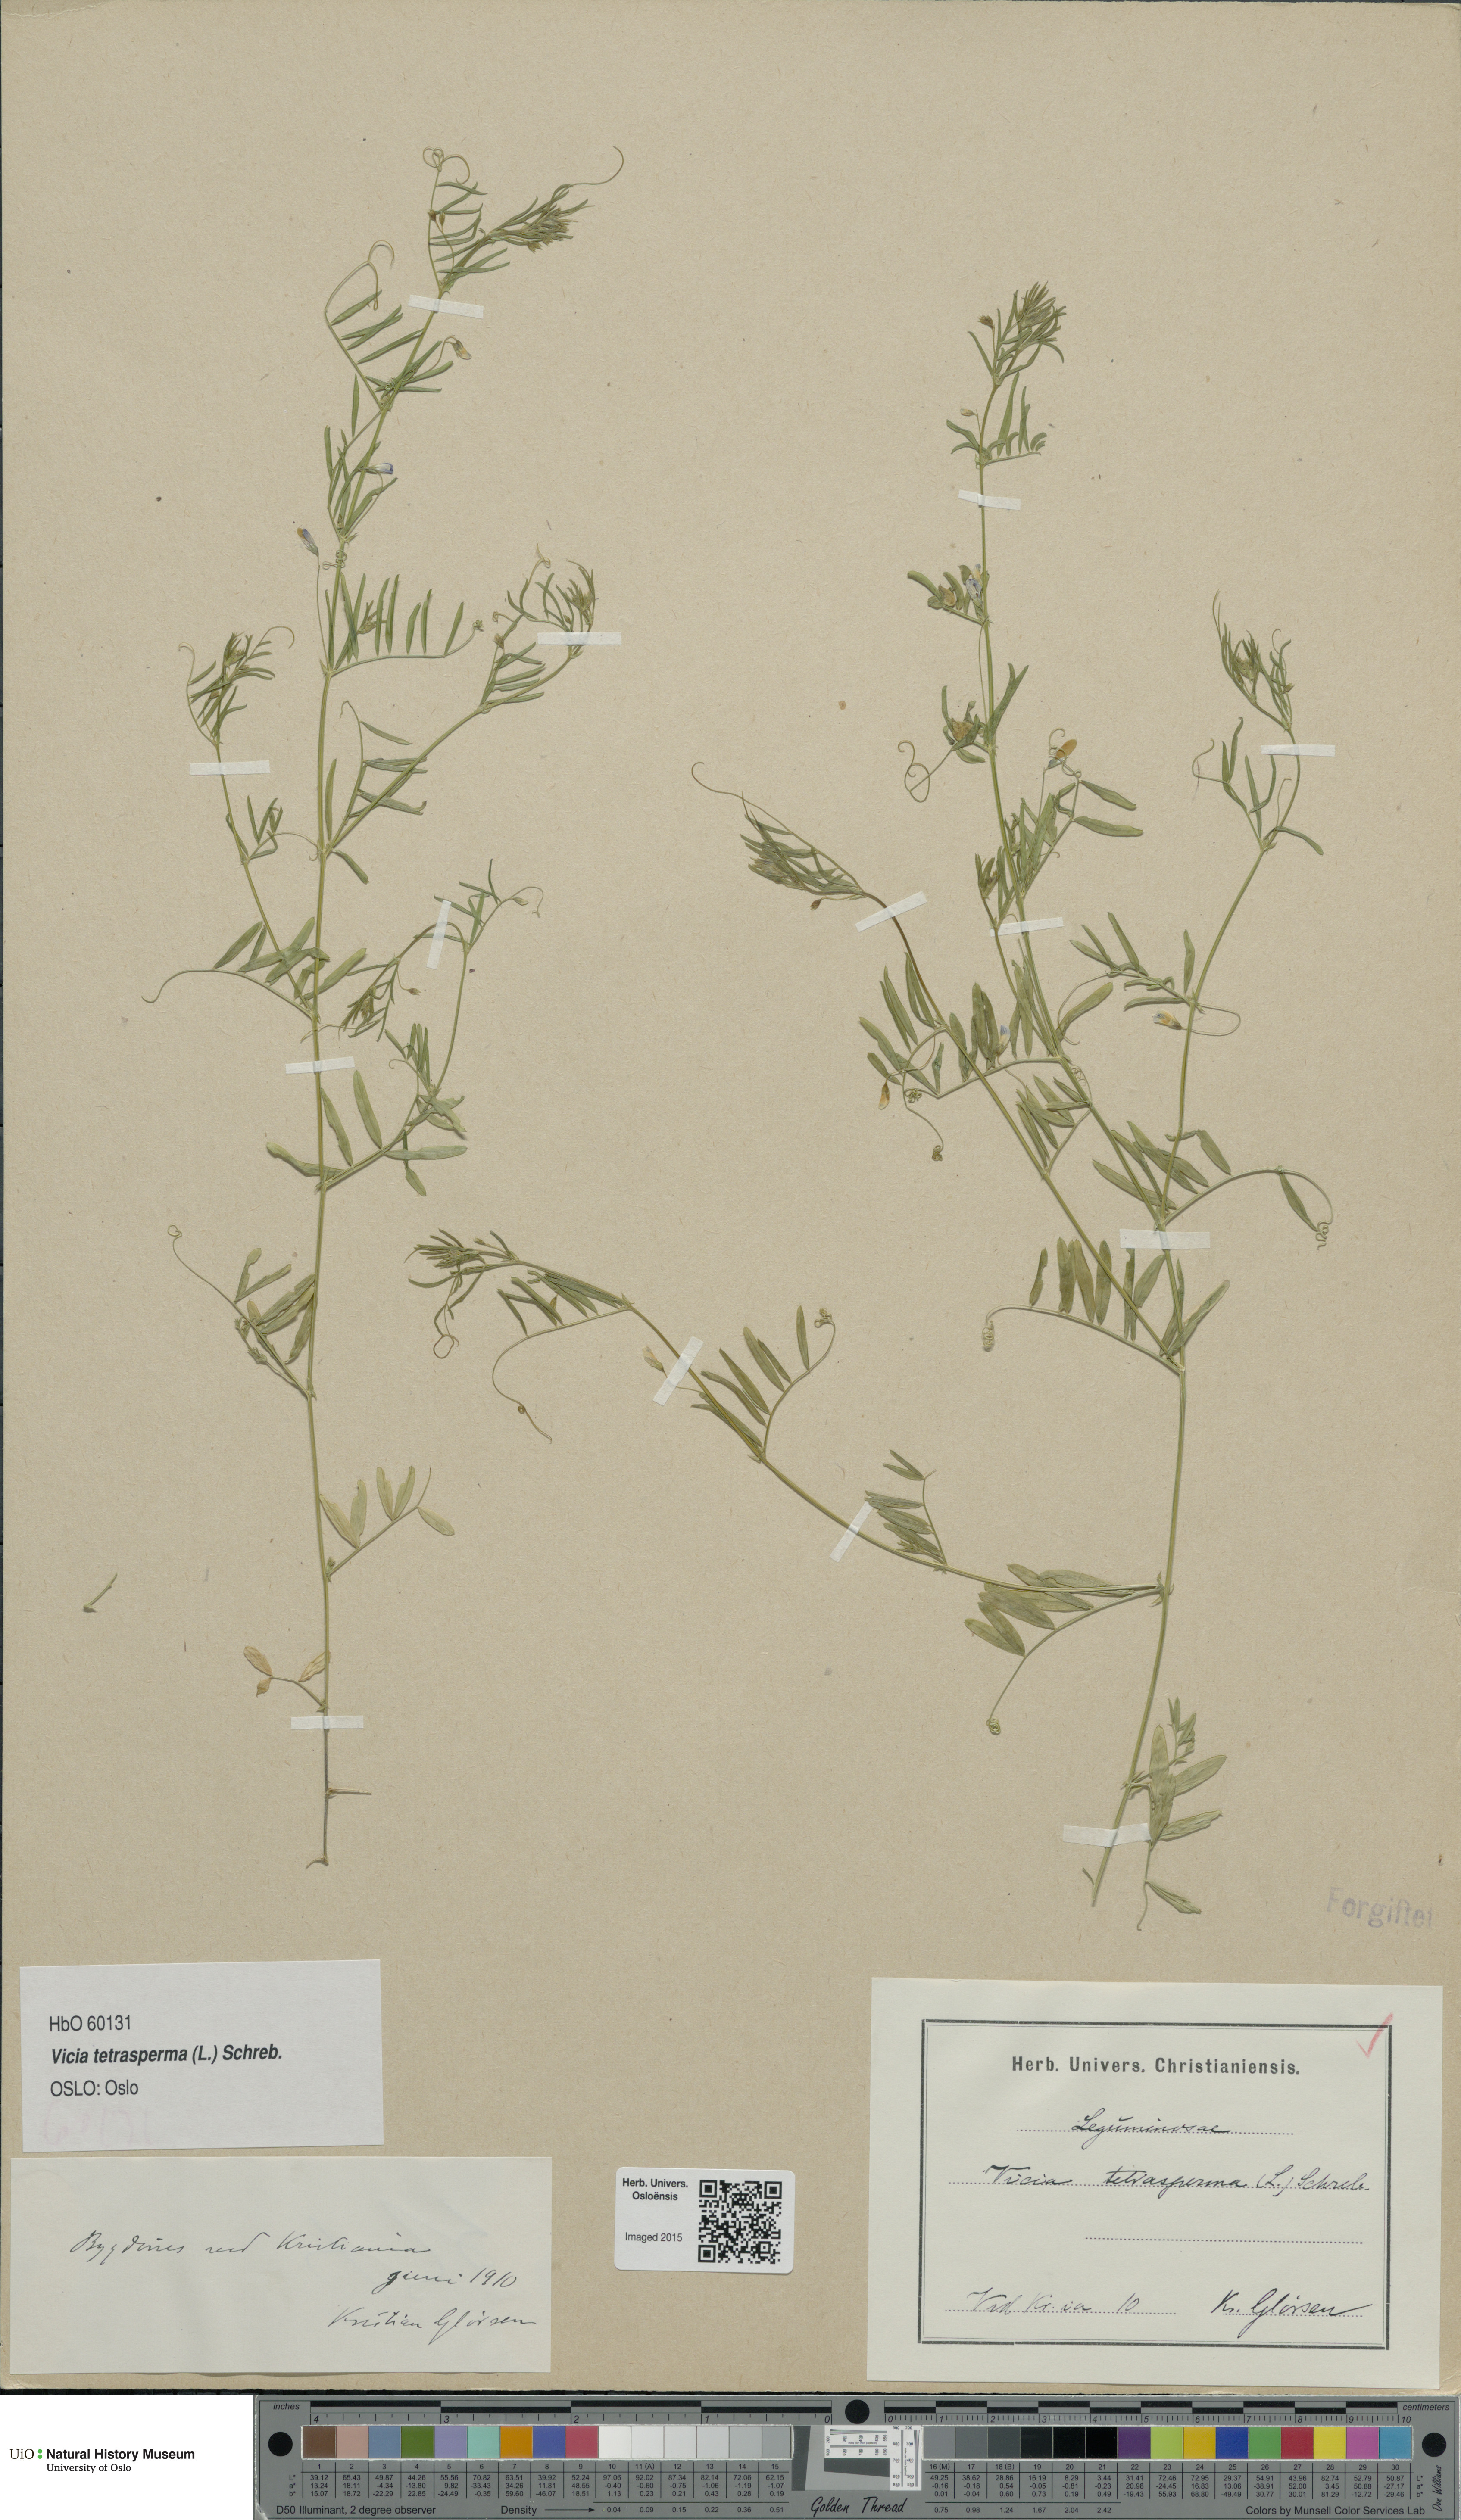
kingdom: Plantae
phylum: Tracheophyta
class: Magnoliopsida
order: Fabales
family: Fabaceae
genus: Vicia
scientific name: Vicia tetrasperma
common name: Smooth tare
